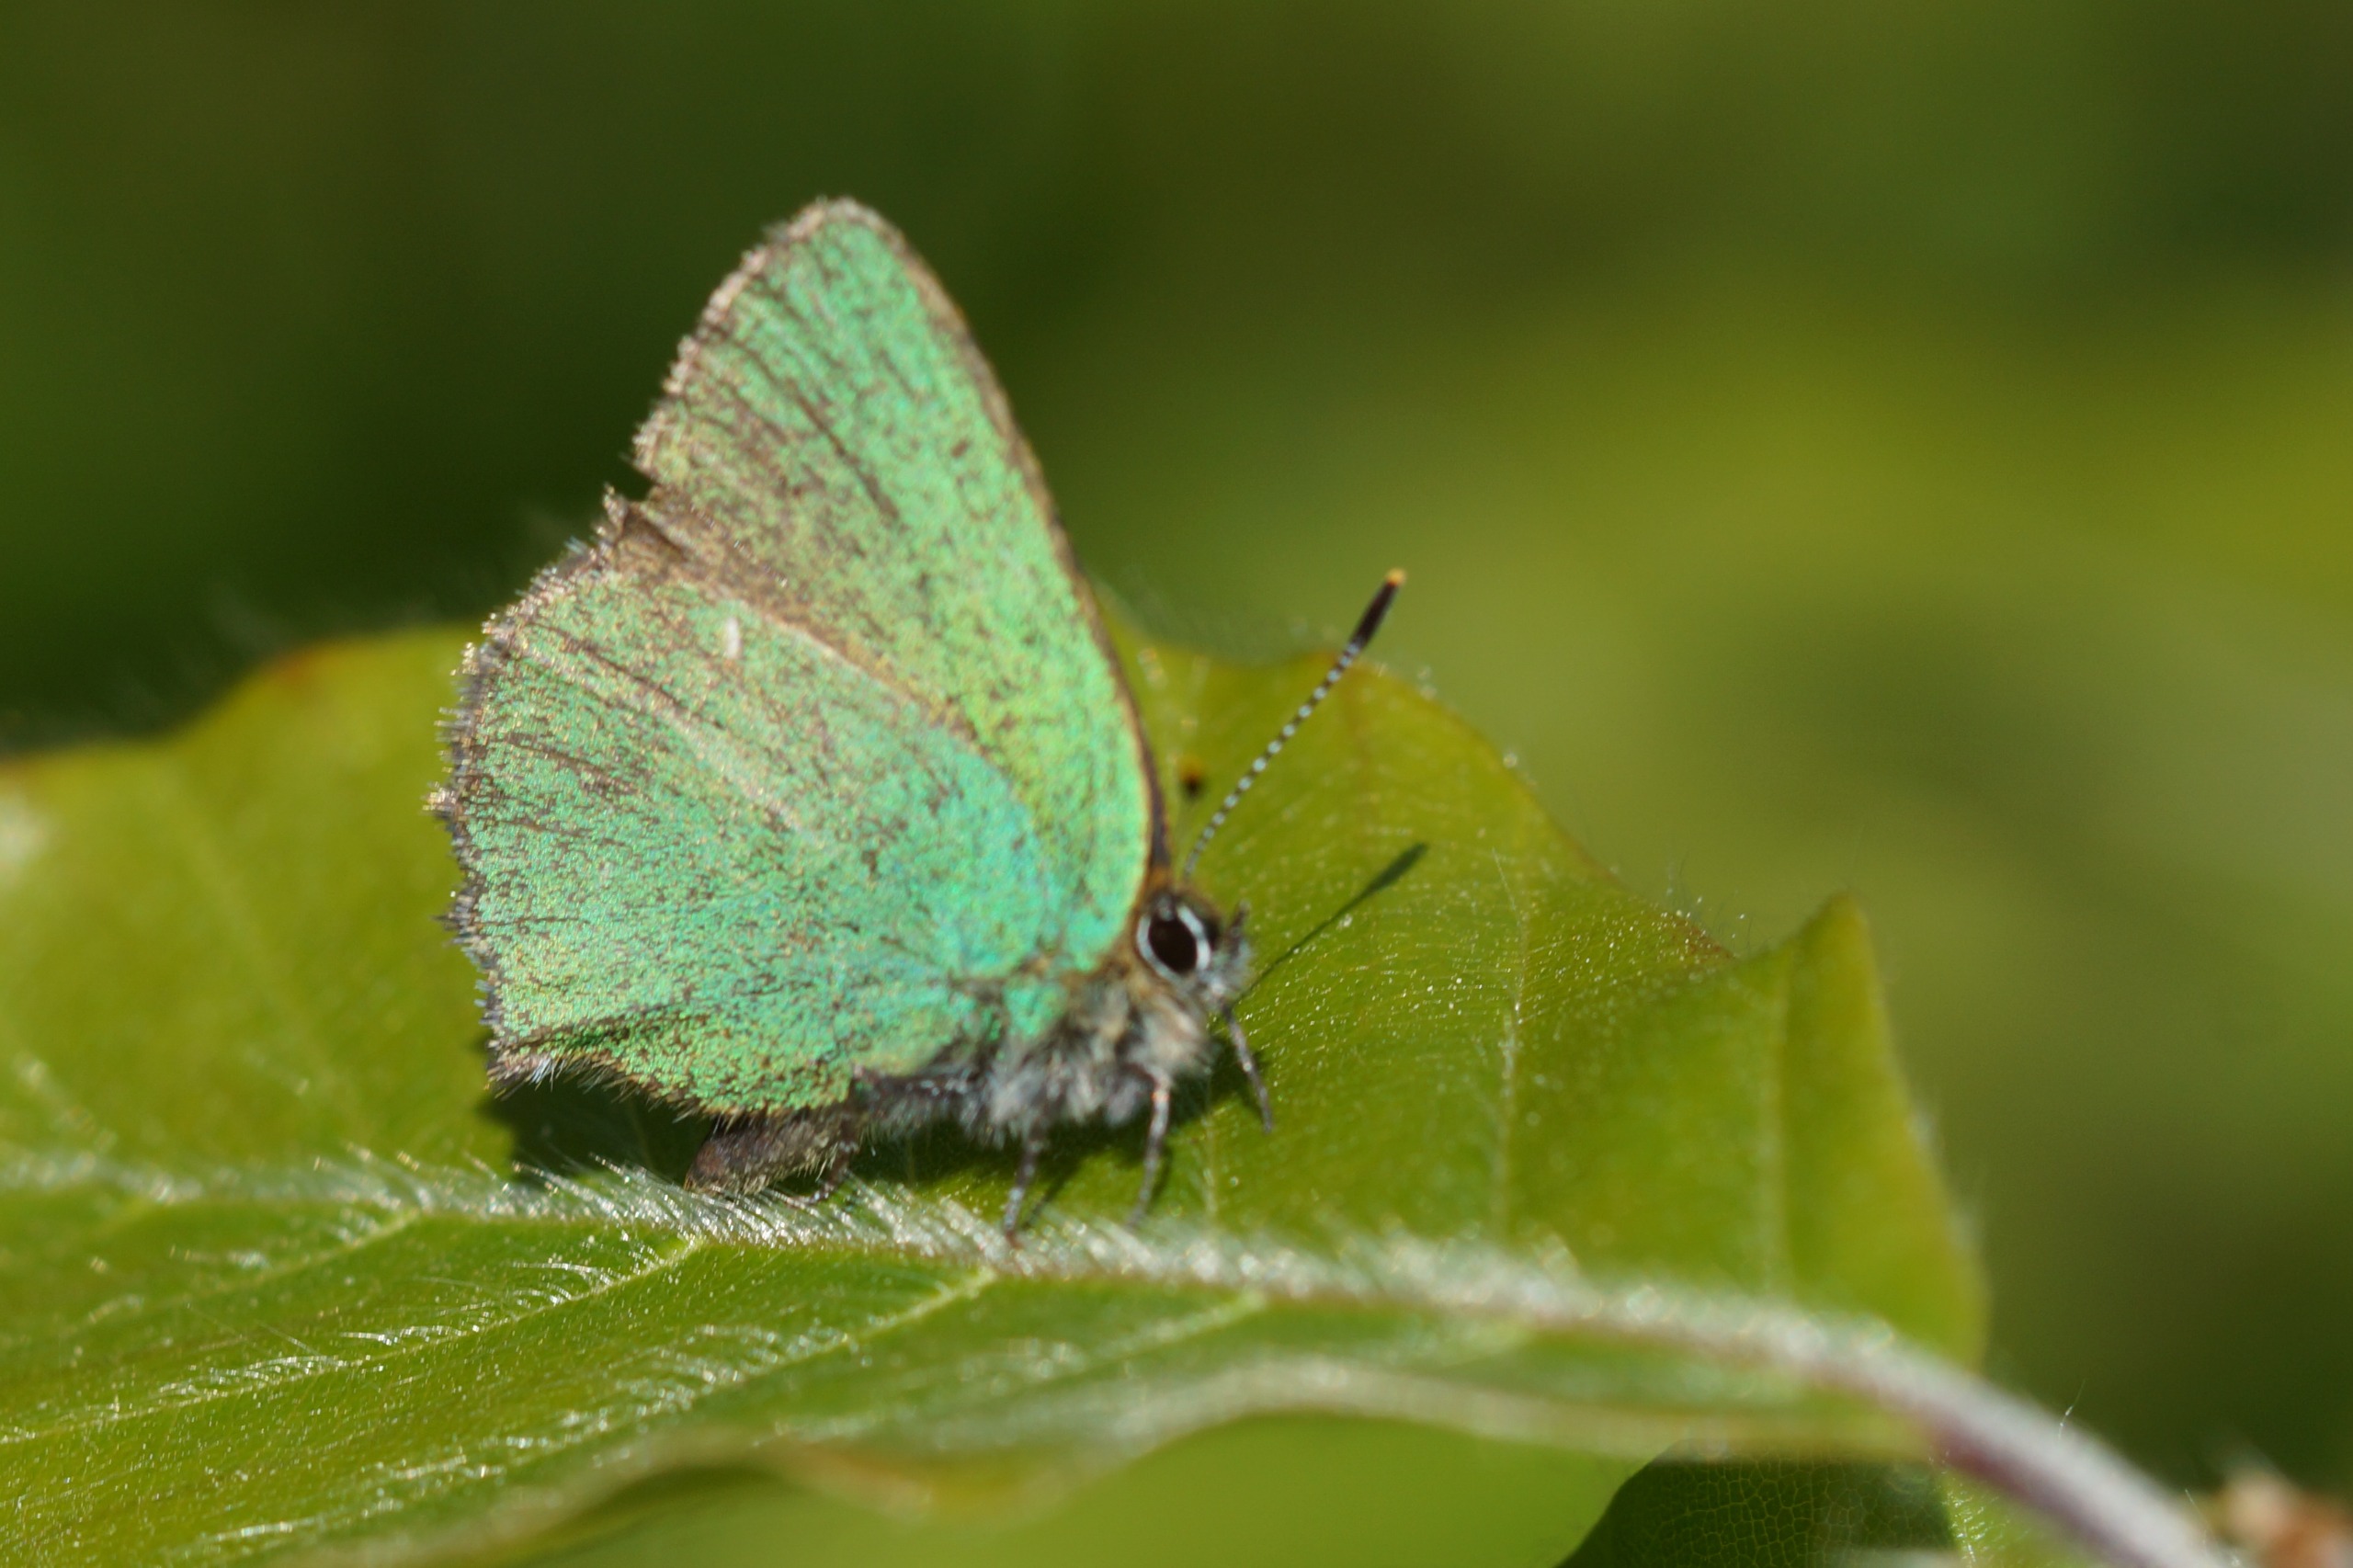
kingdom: Animalia
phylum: Arthropoda
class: Insecta
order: Lepidoptera
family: Lycaenidae
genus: Callophrys
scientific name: Callophrys rubi
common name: Grøn busksommerfugl
